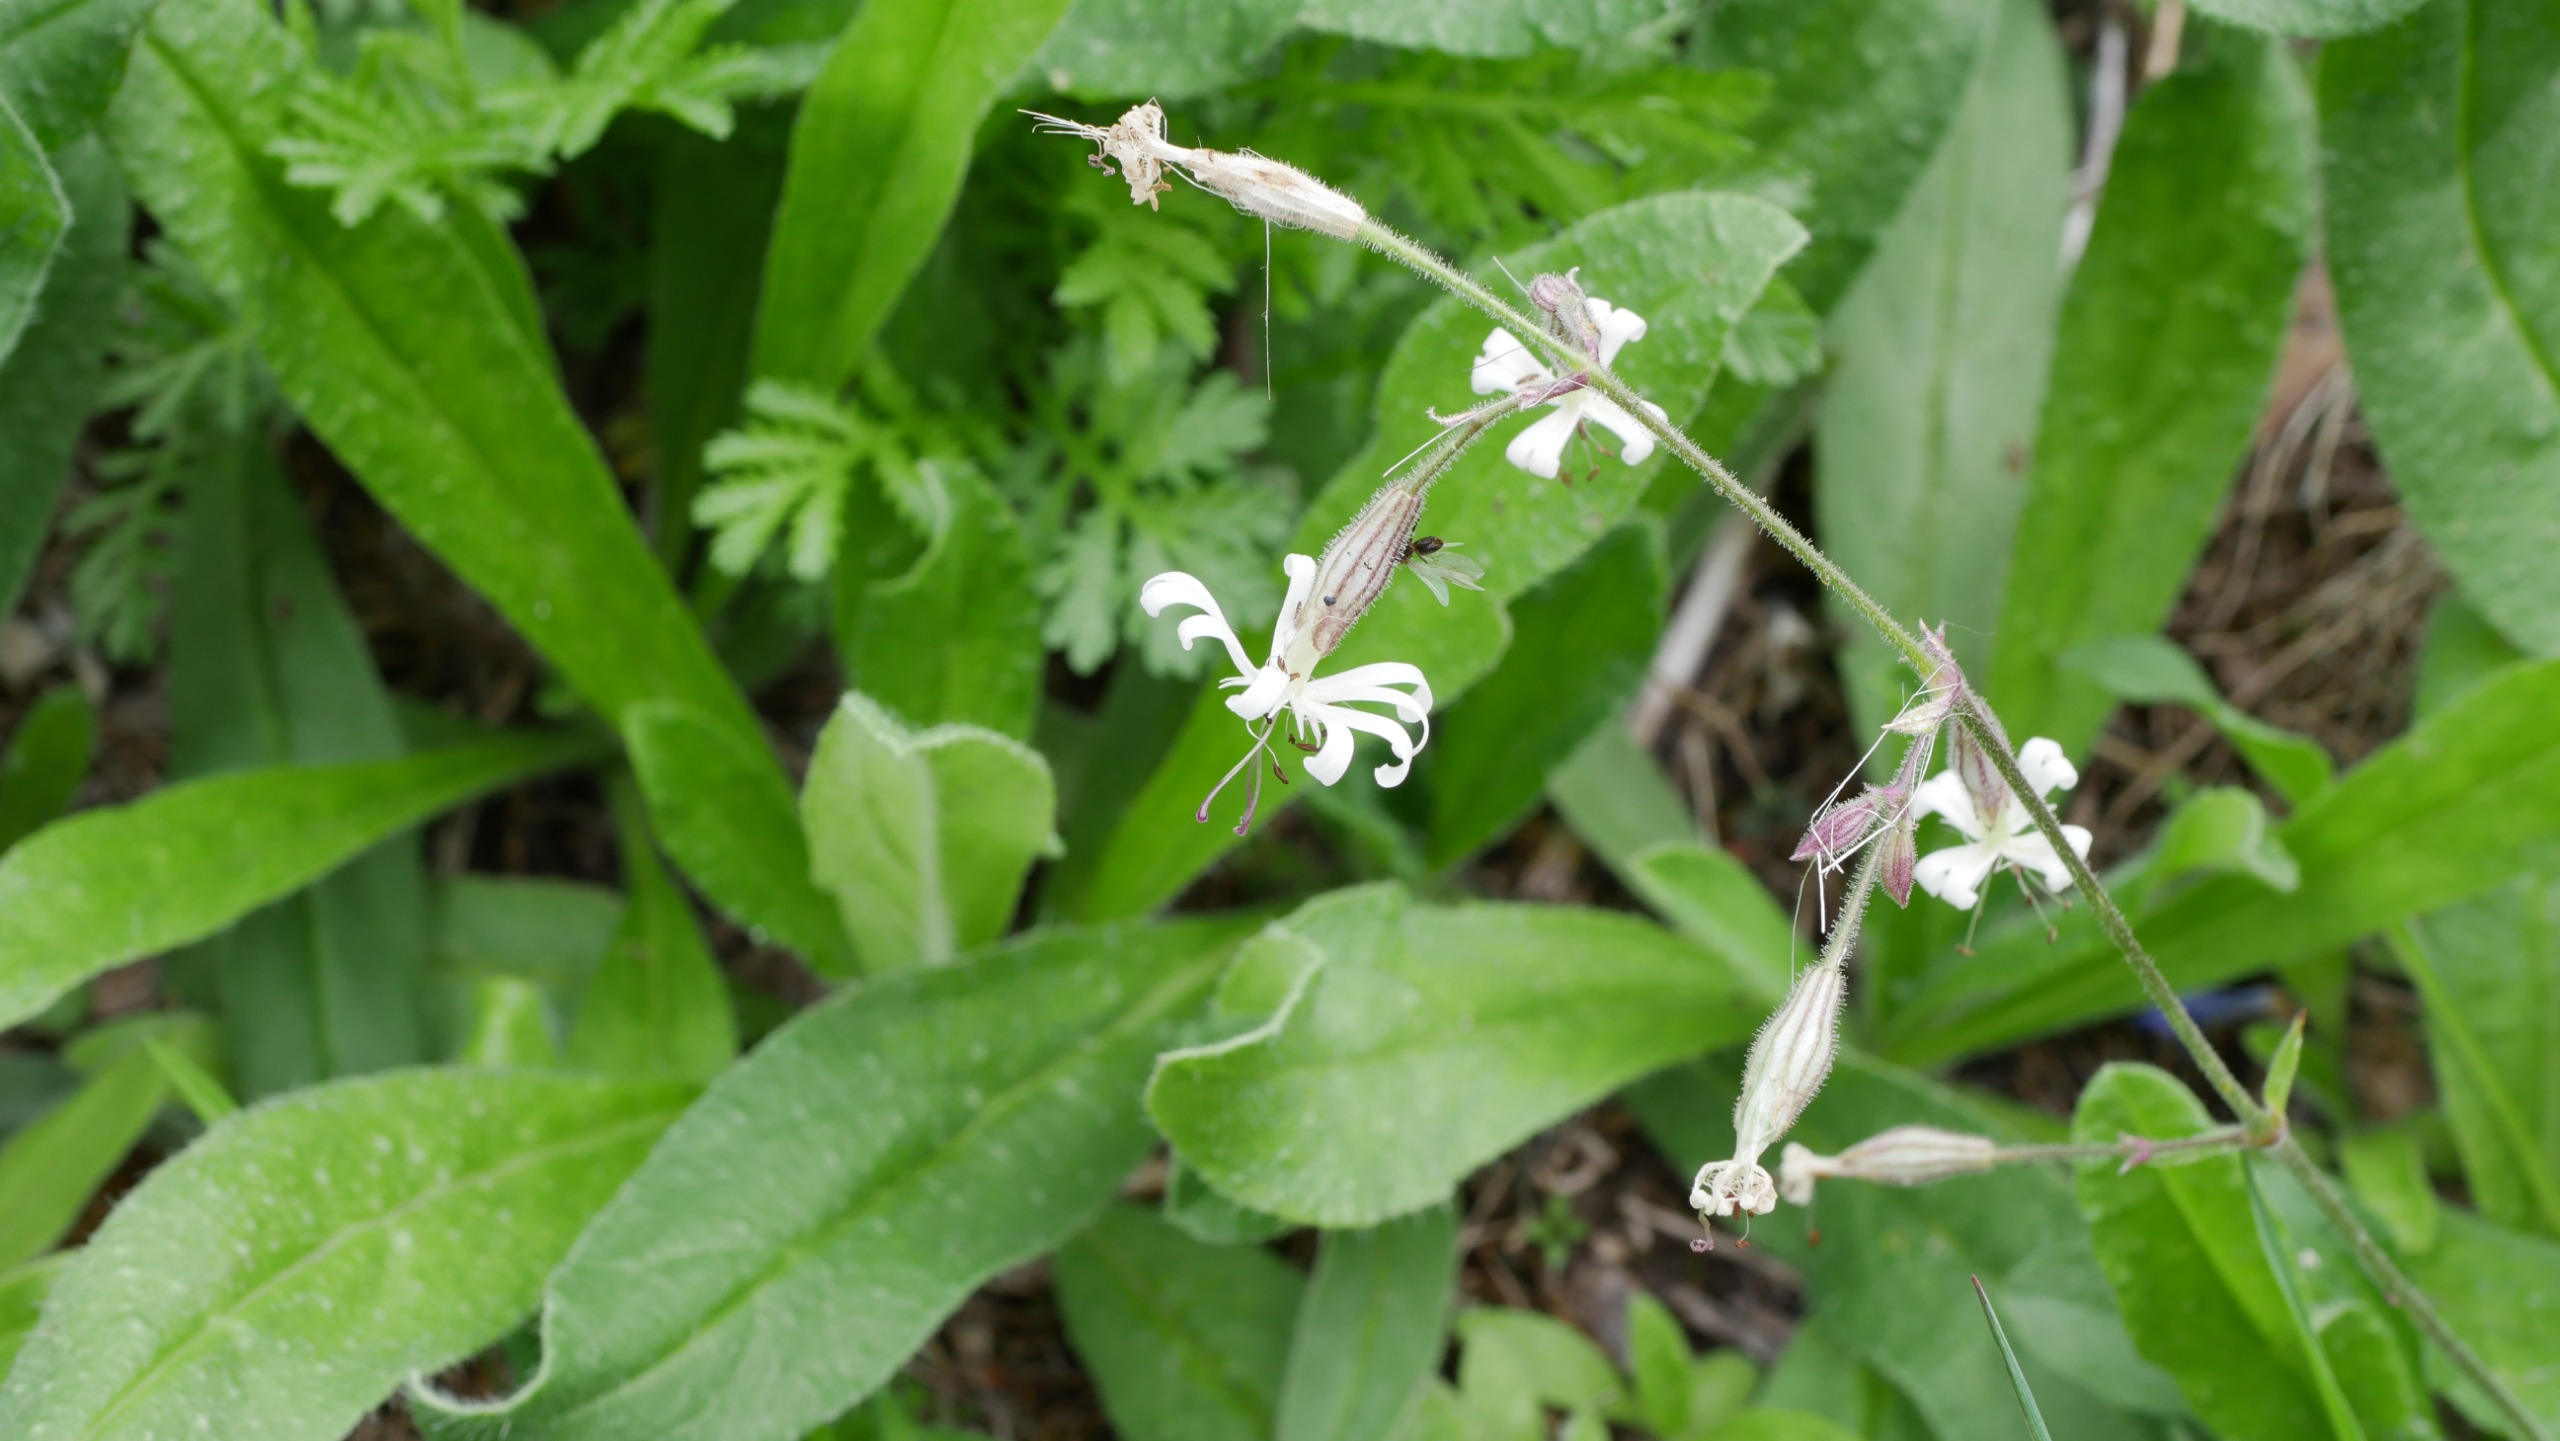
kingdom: Plantae
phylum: Tracheophyta
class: Magnoliopsida
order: Caryophyllales
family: Caryophyllaceae
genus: Silene
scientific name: Silene nutans
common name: Nikkende limurt
